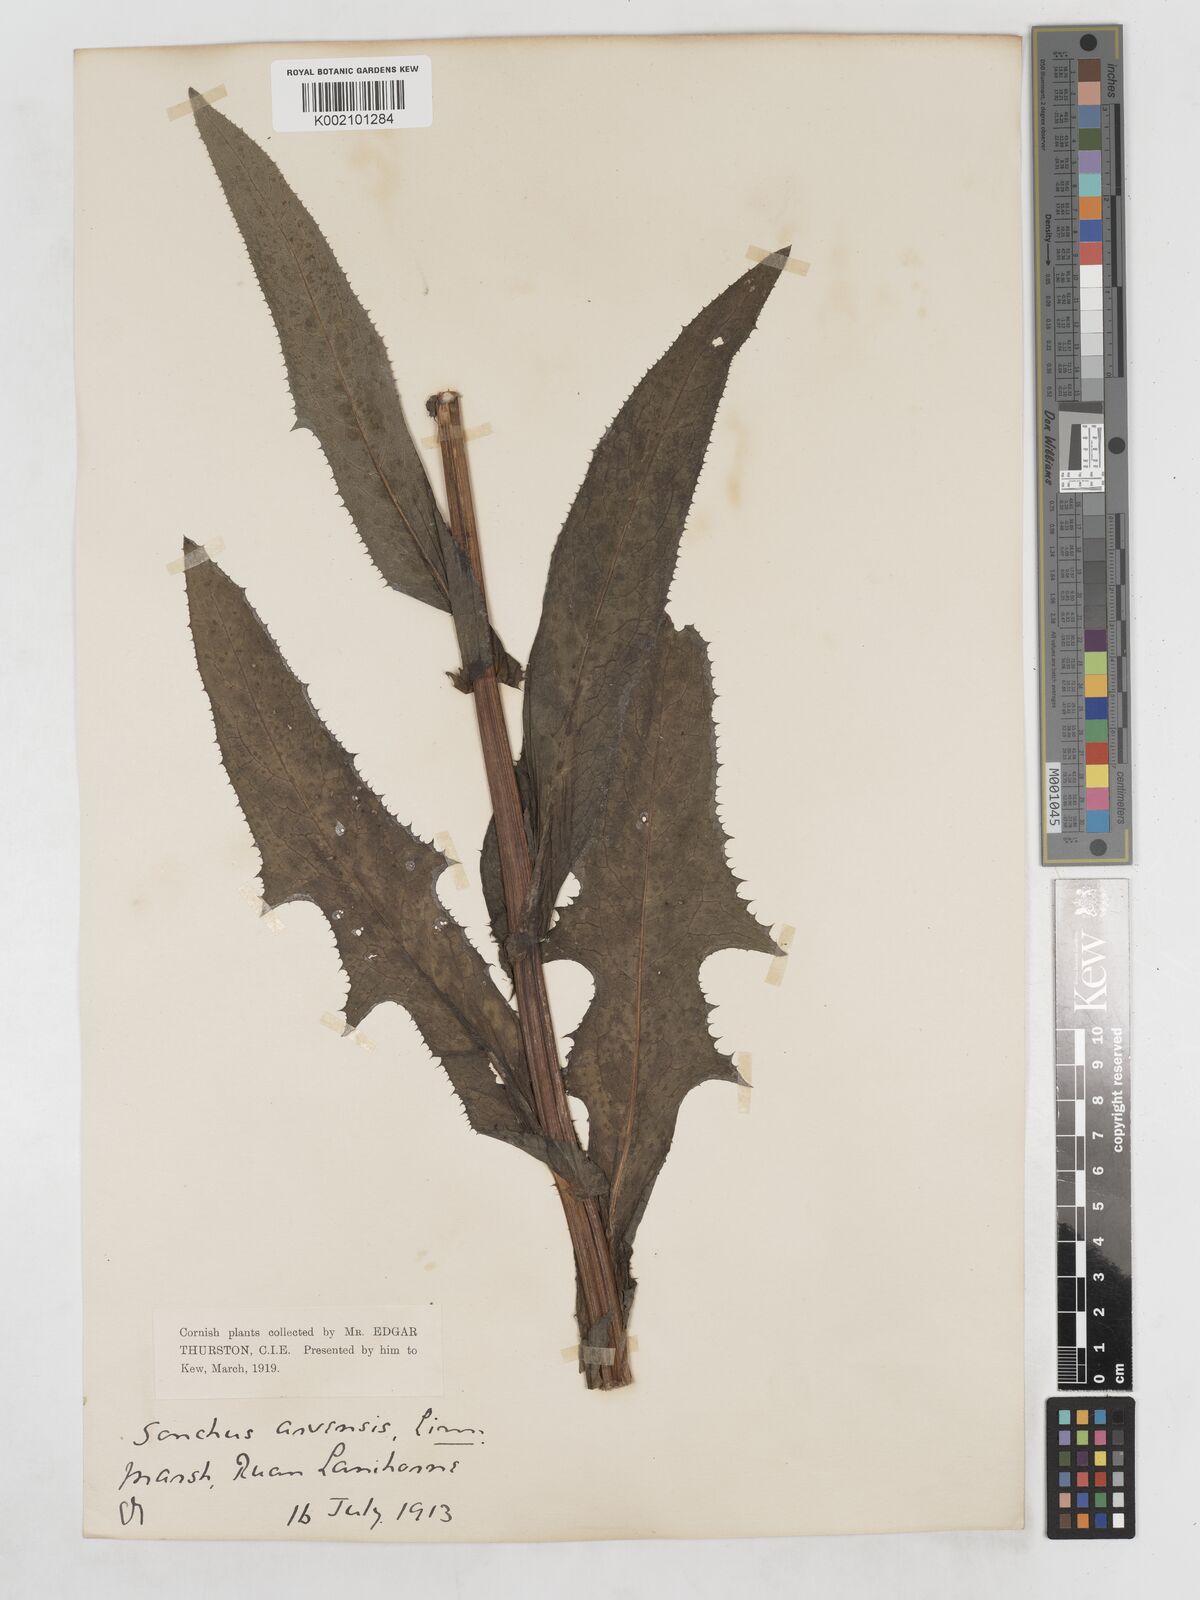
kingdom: Plantae
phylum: Tracheophyta
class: Magnoliopsida
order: Asterales
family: Asteraceae
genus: Sonchus
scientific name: Sonchus arvensis
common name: Perennial sow-thistle
